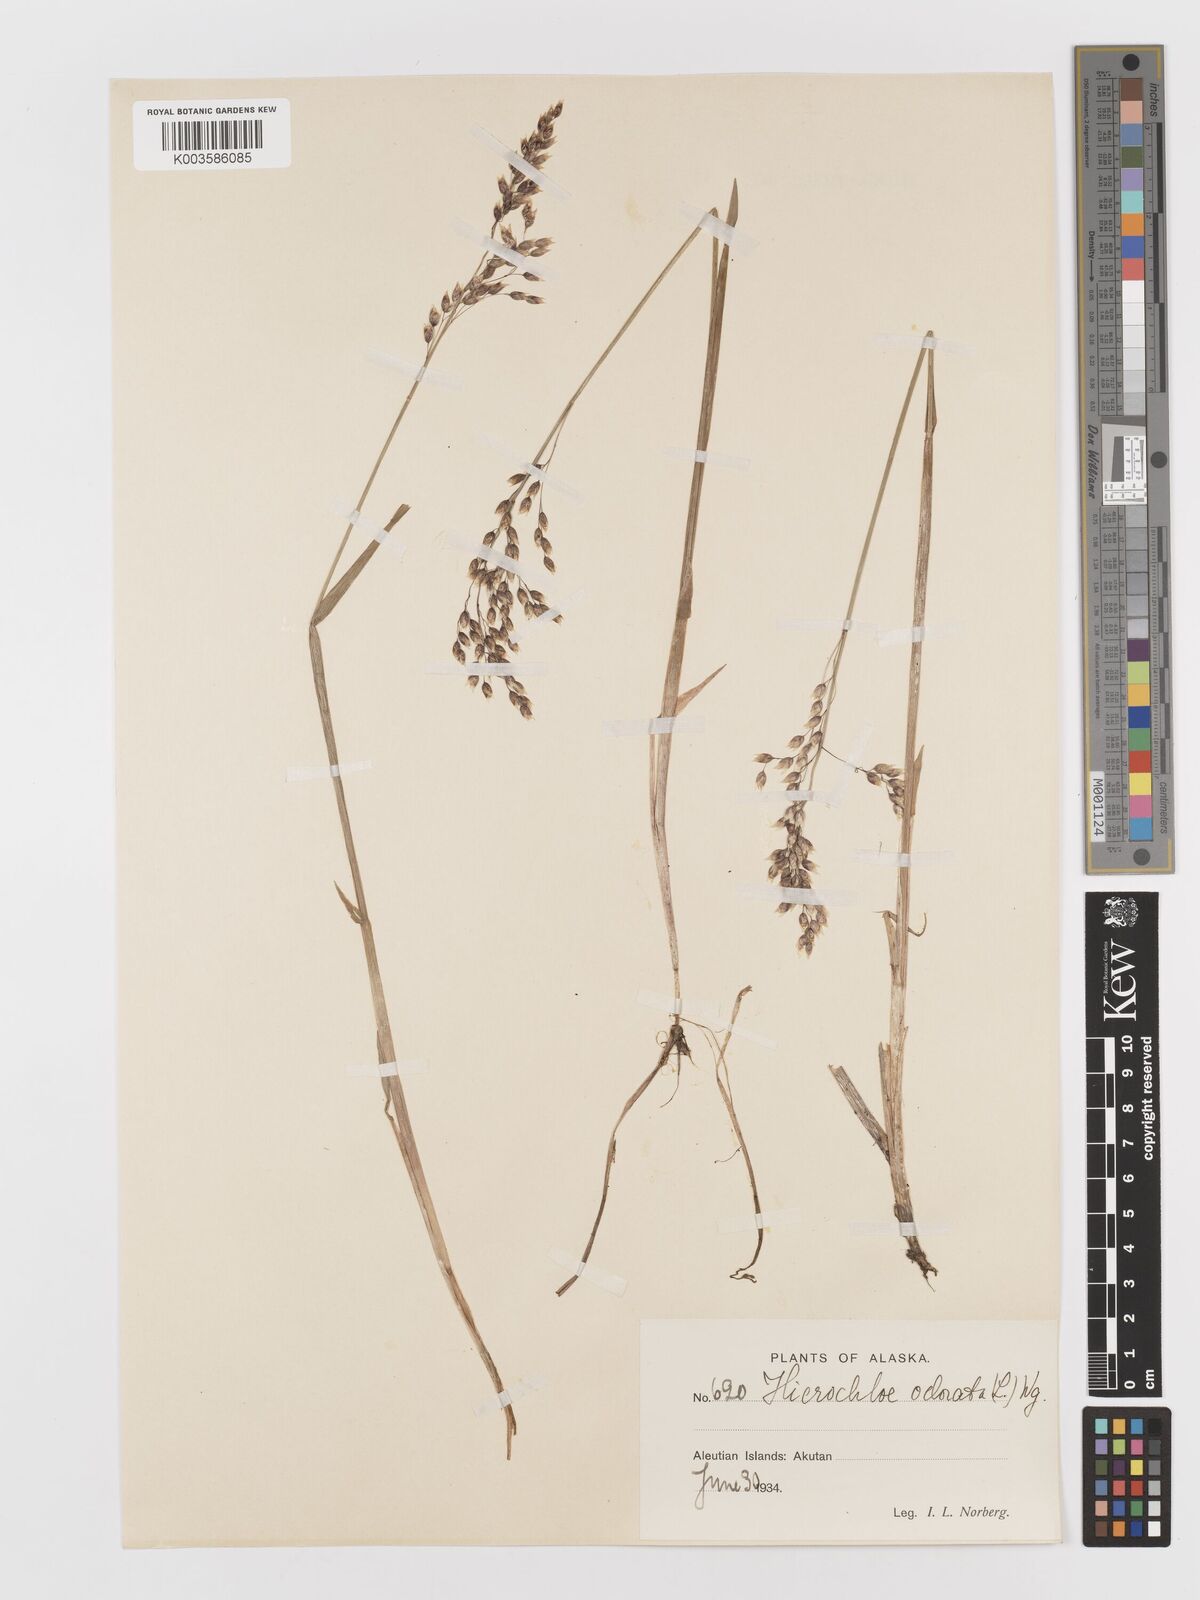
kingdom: Plantae
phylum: Tracheophyta
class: Liliopsida
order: Poales
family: Poaceae
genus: Anthoxanthum
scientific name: Anthoxanthum nitens
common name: Holy grass
